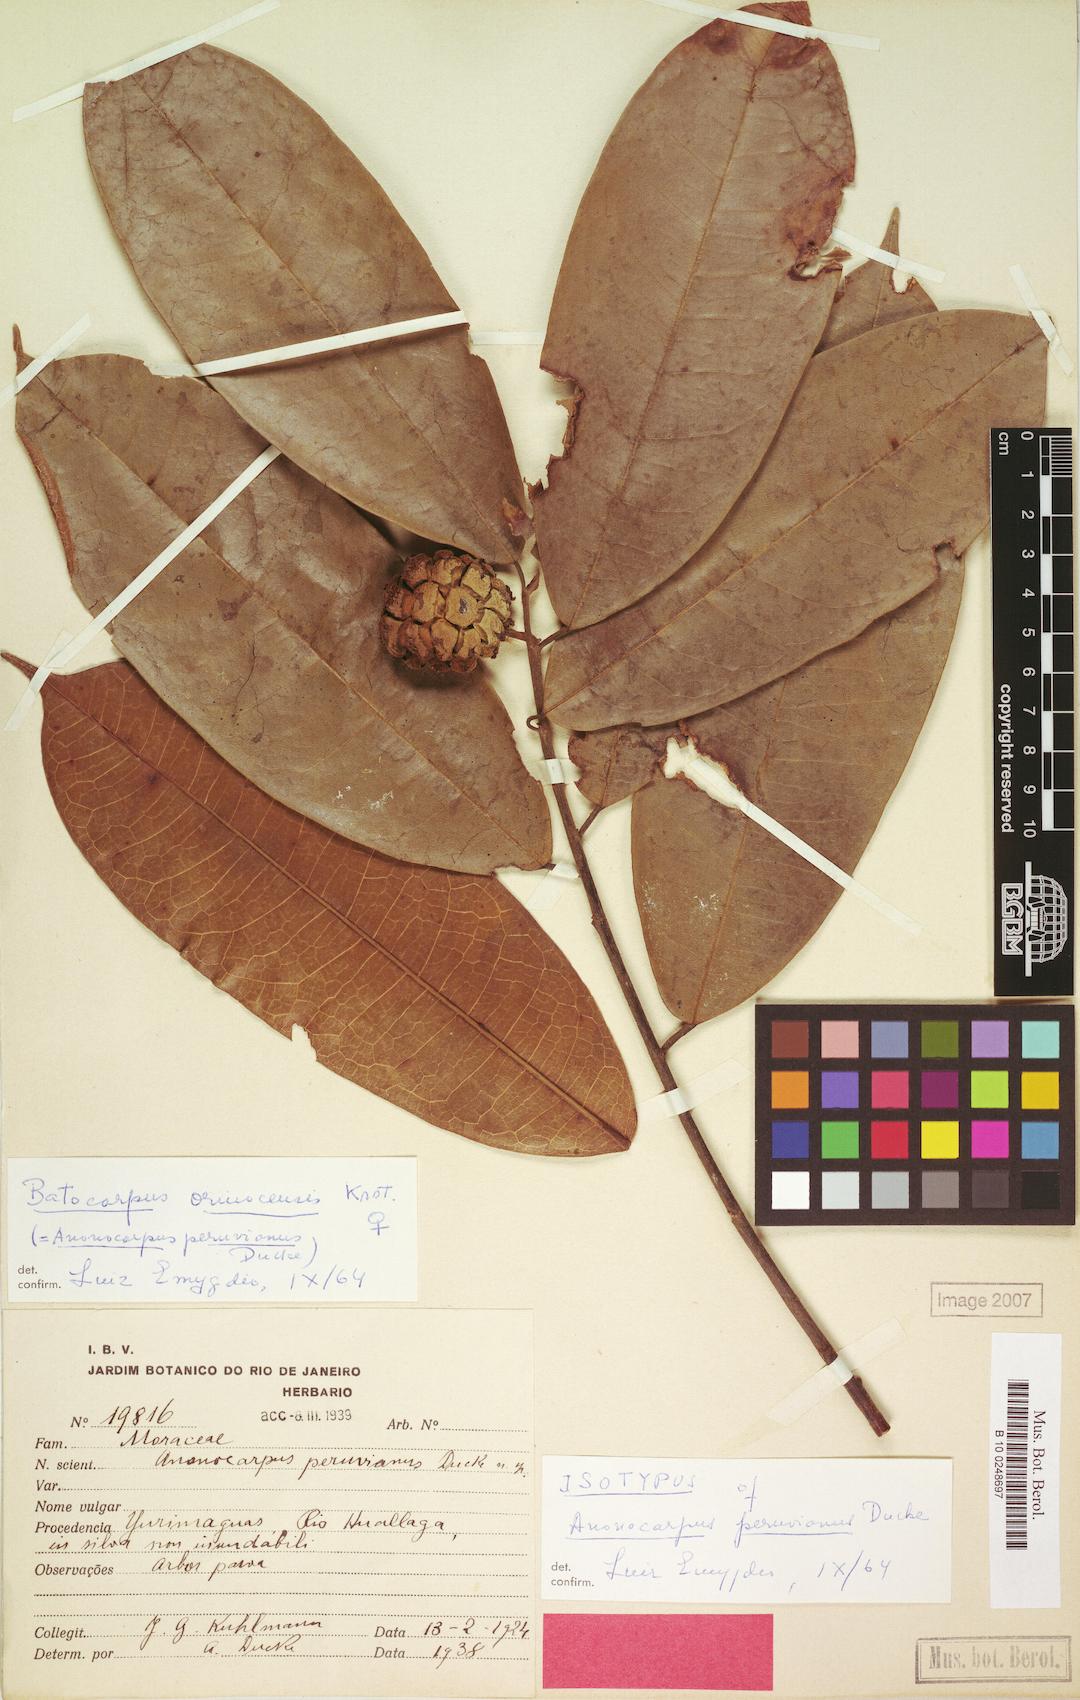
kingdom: Plantae
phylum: Tracheophyta
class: Magnoliopsida
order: Rosales
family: Moraceae
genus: Batocarpus
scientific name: Batocarpus orinocensis
